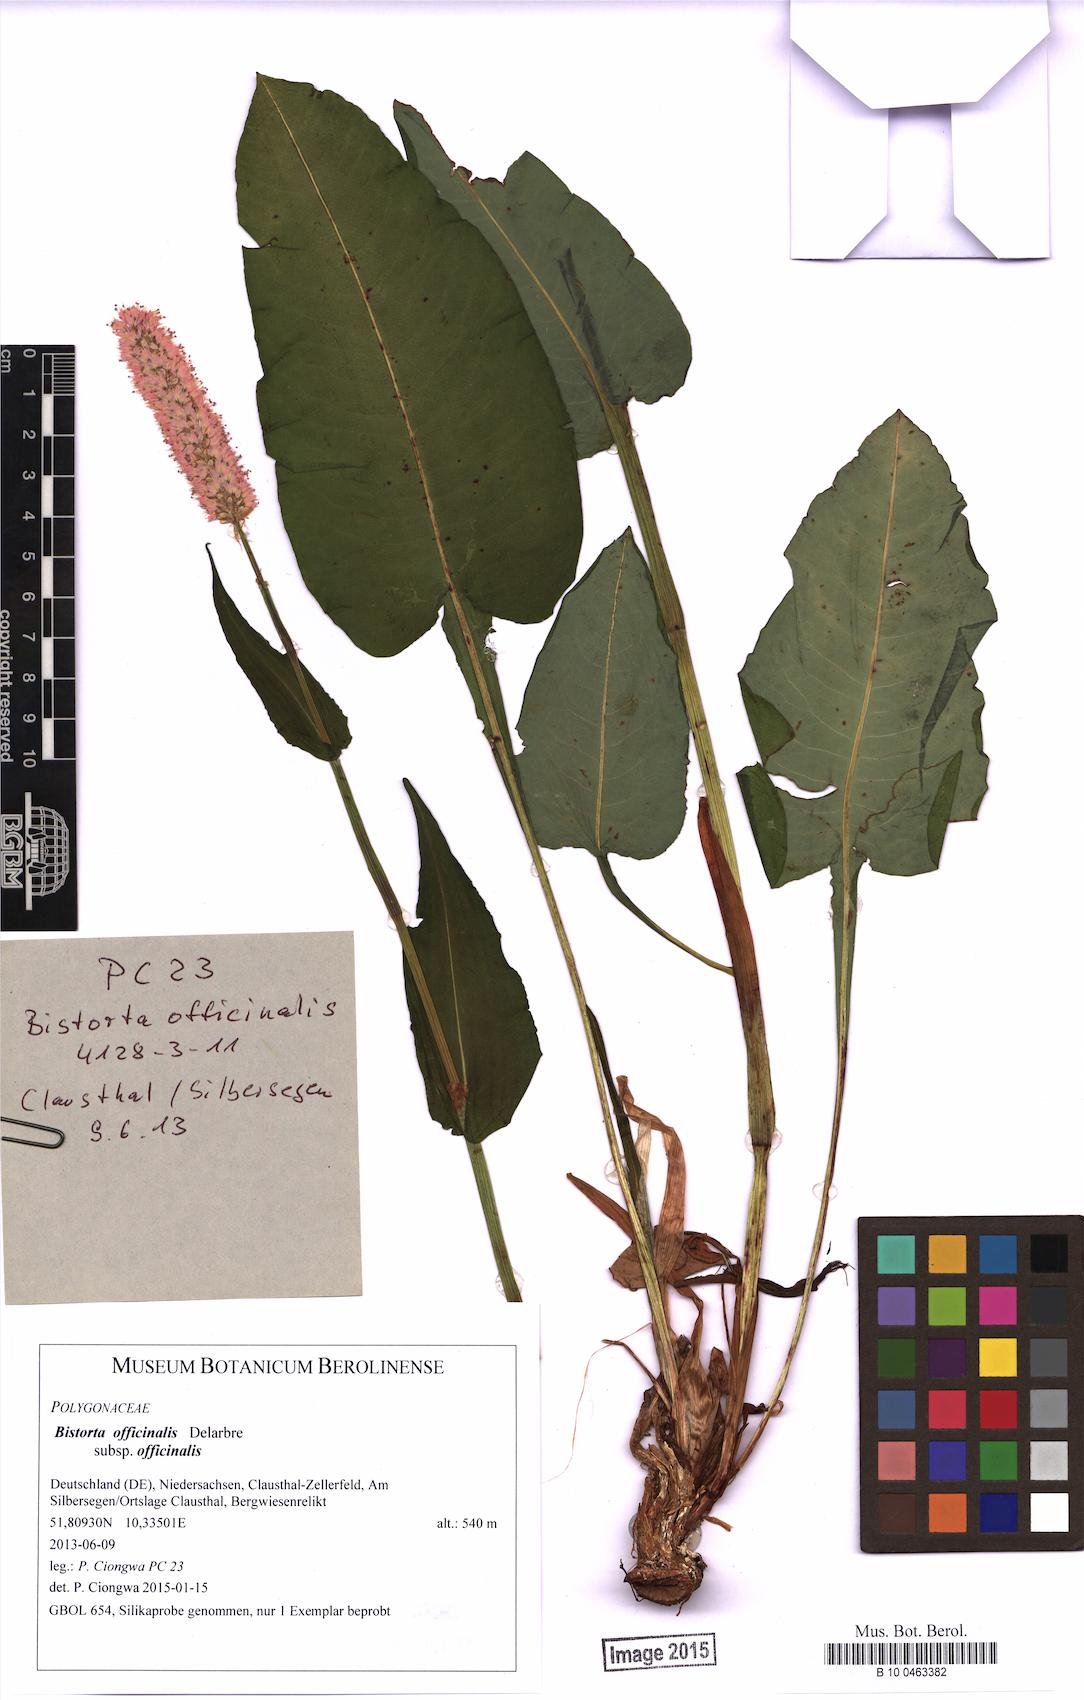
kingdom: Plantae
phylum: Tracheophyta
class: Magnoliopsida
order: Caryophyllales
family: Polygonaceae
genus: Bistorta
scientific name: Bistorta officinalis
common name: Common bistort
